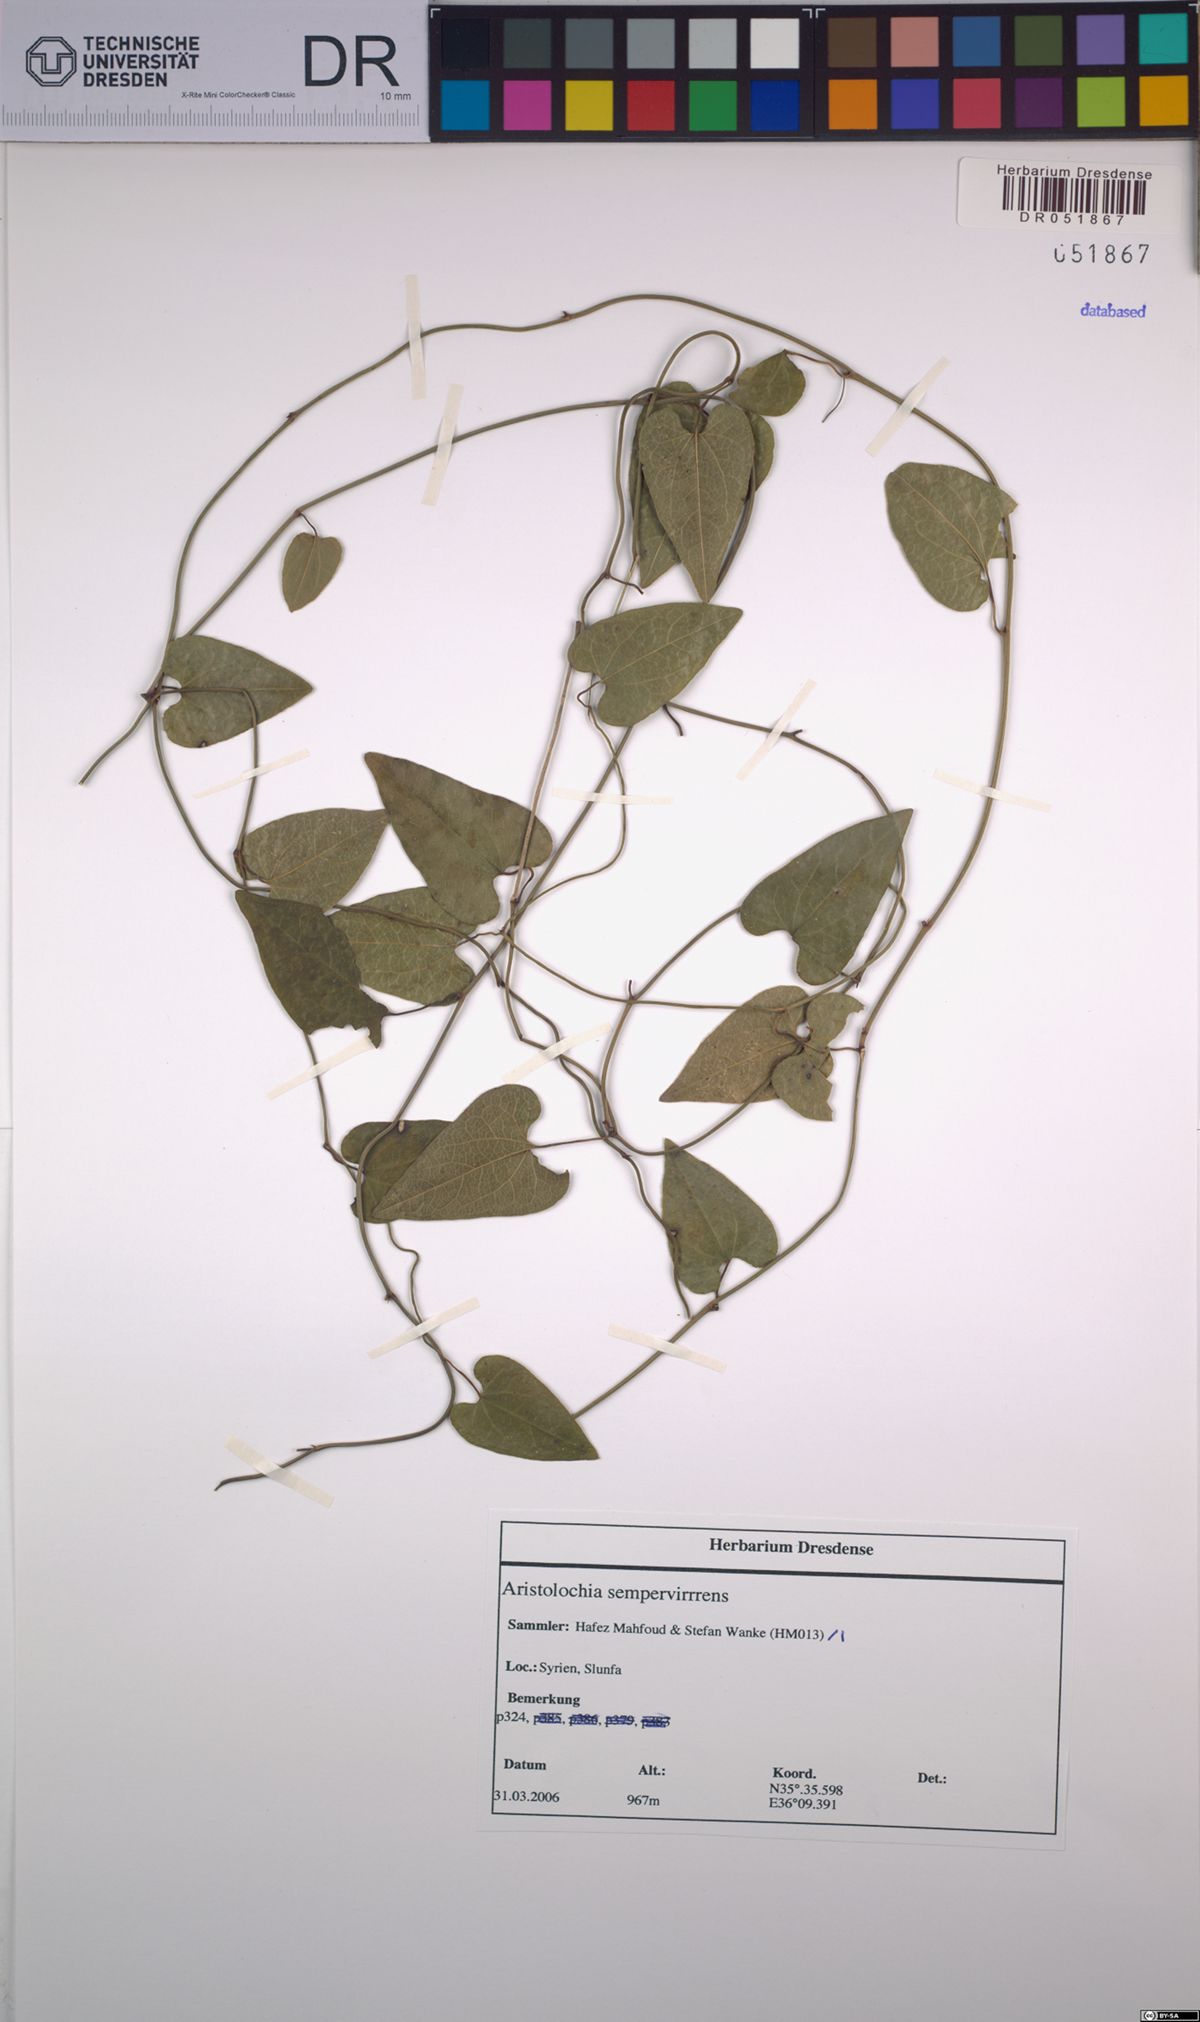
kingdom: Plantae
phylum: Tracheophyta
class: Magnoliopsida
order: Piperales
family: Aristolochiaceae
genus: Aristolochia
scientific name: Aristolochia sempervirens
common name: Long birthwort
